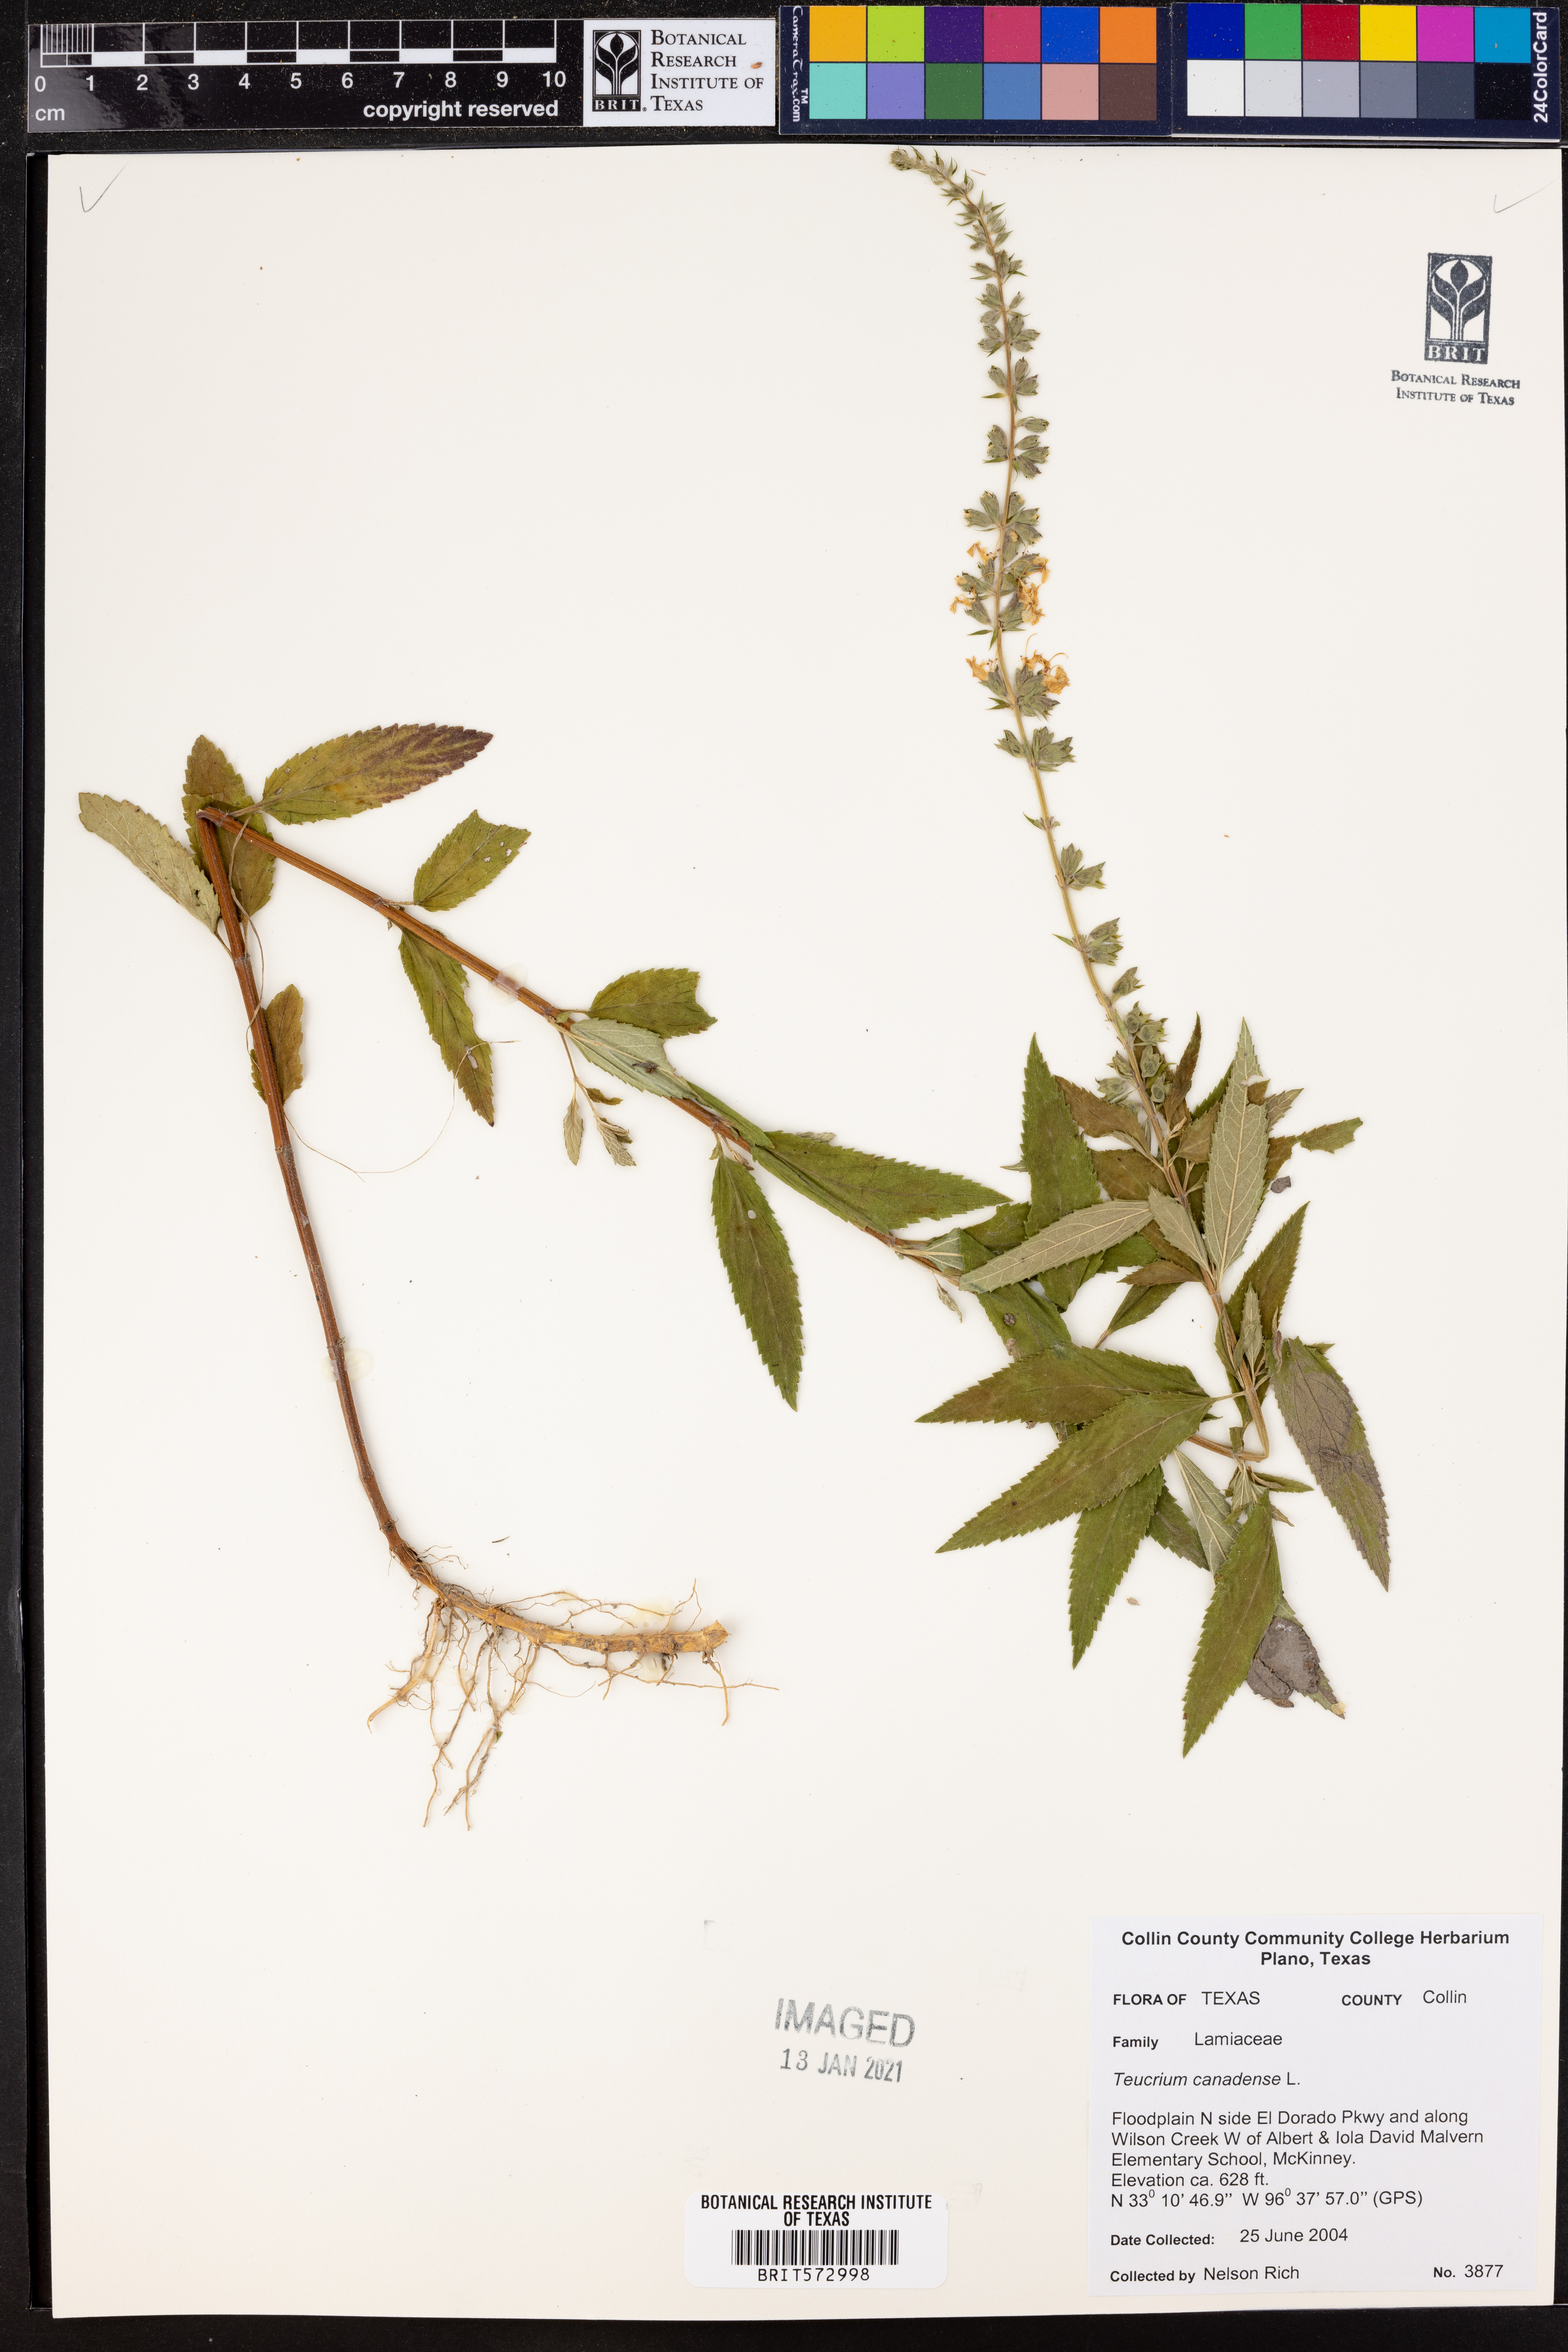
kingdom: Plantae
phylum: Tracheophyta
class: Magnoliopsida
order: Lamiales
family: Lamiaceae
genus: Teucrium
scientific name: Teucrium canadense
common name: American germander
